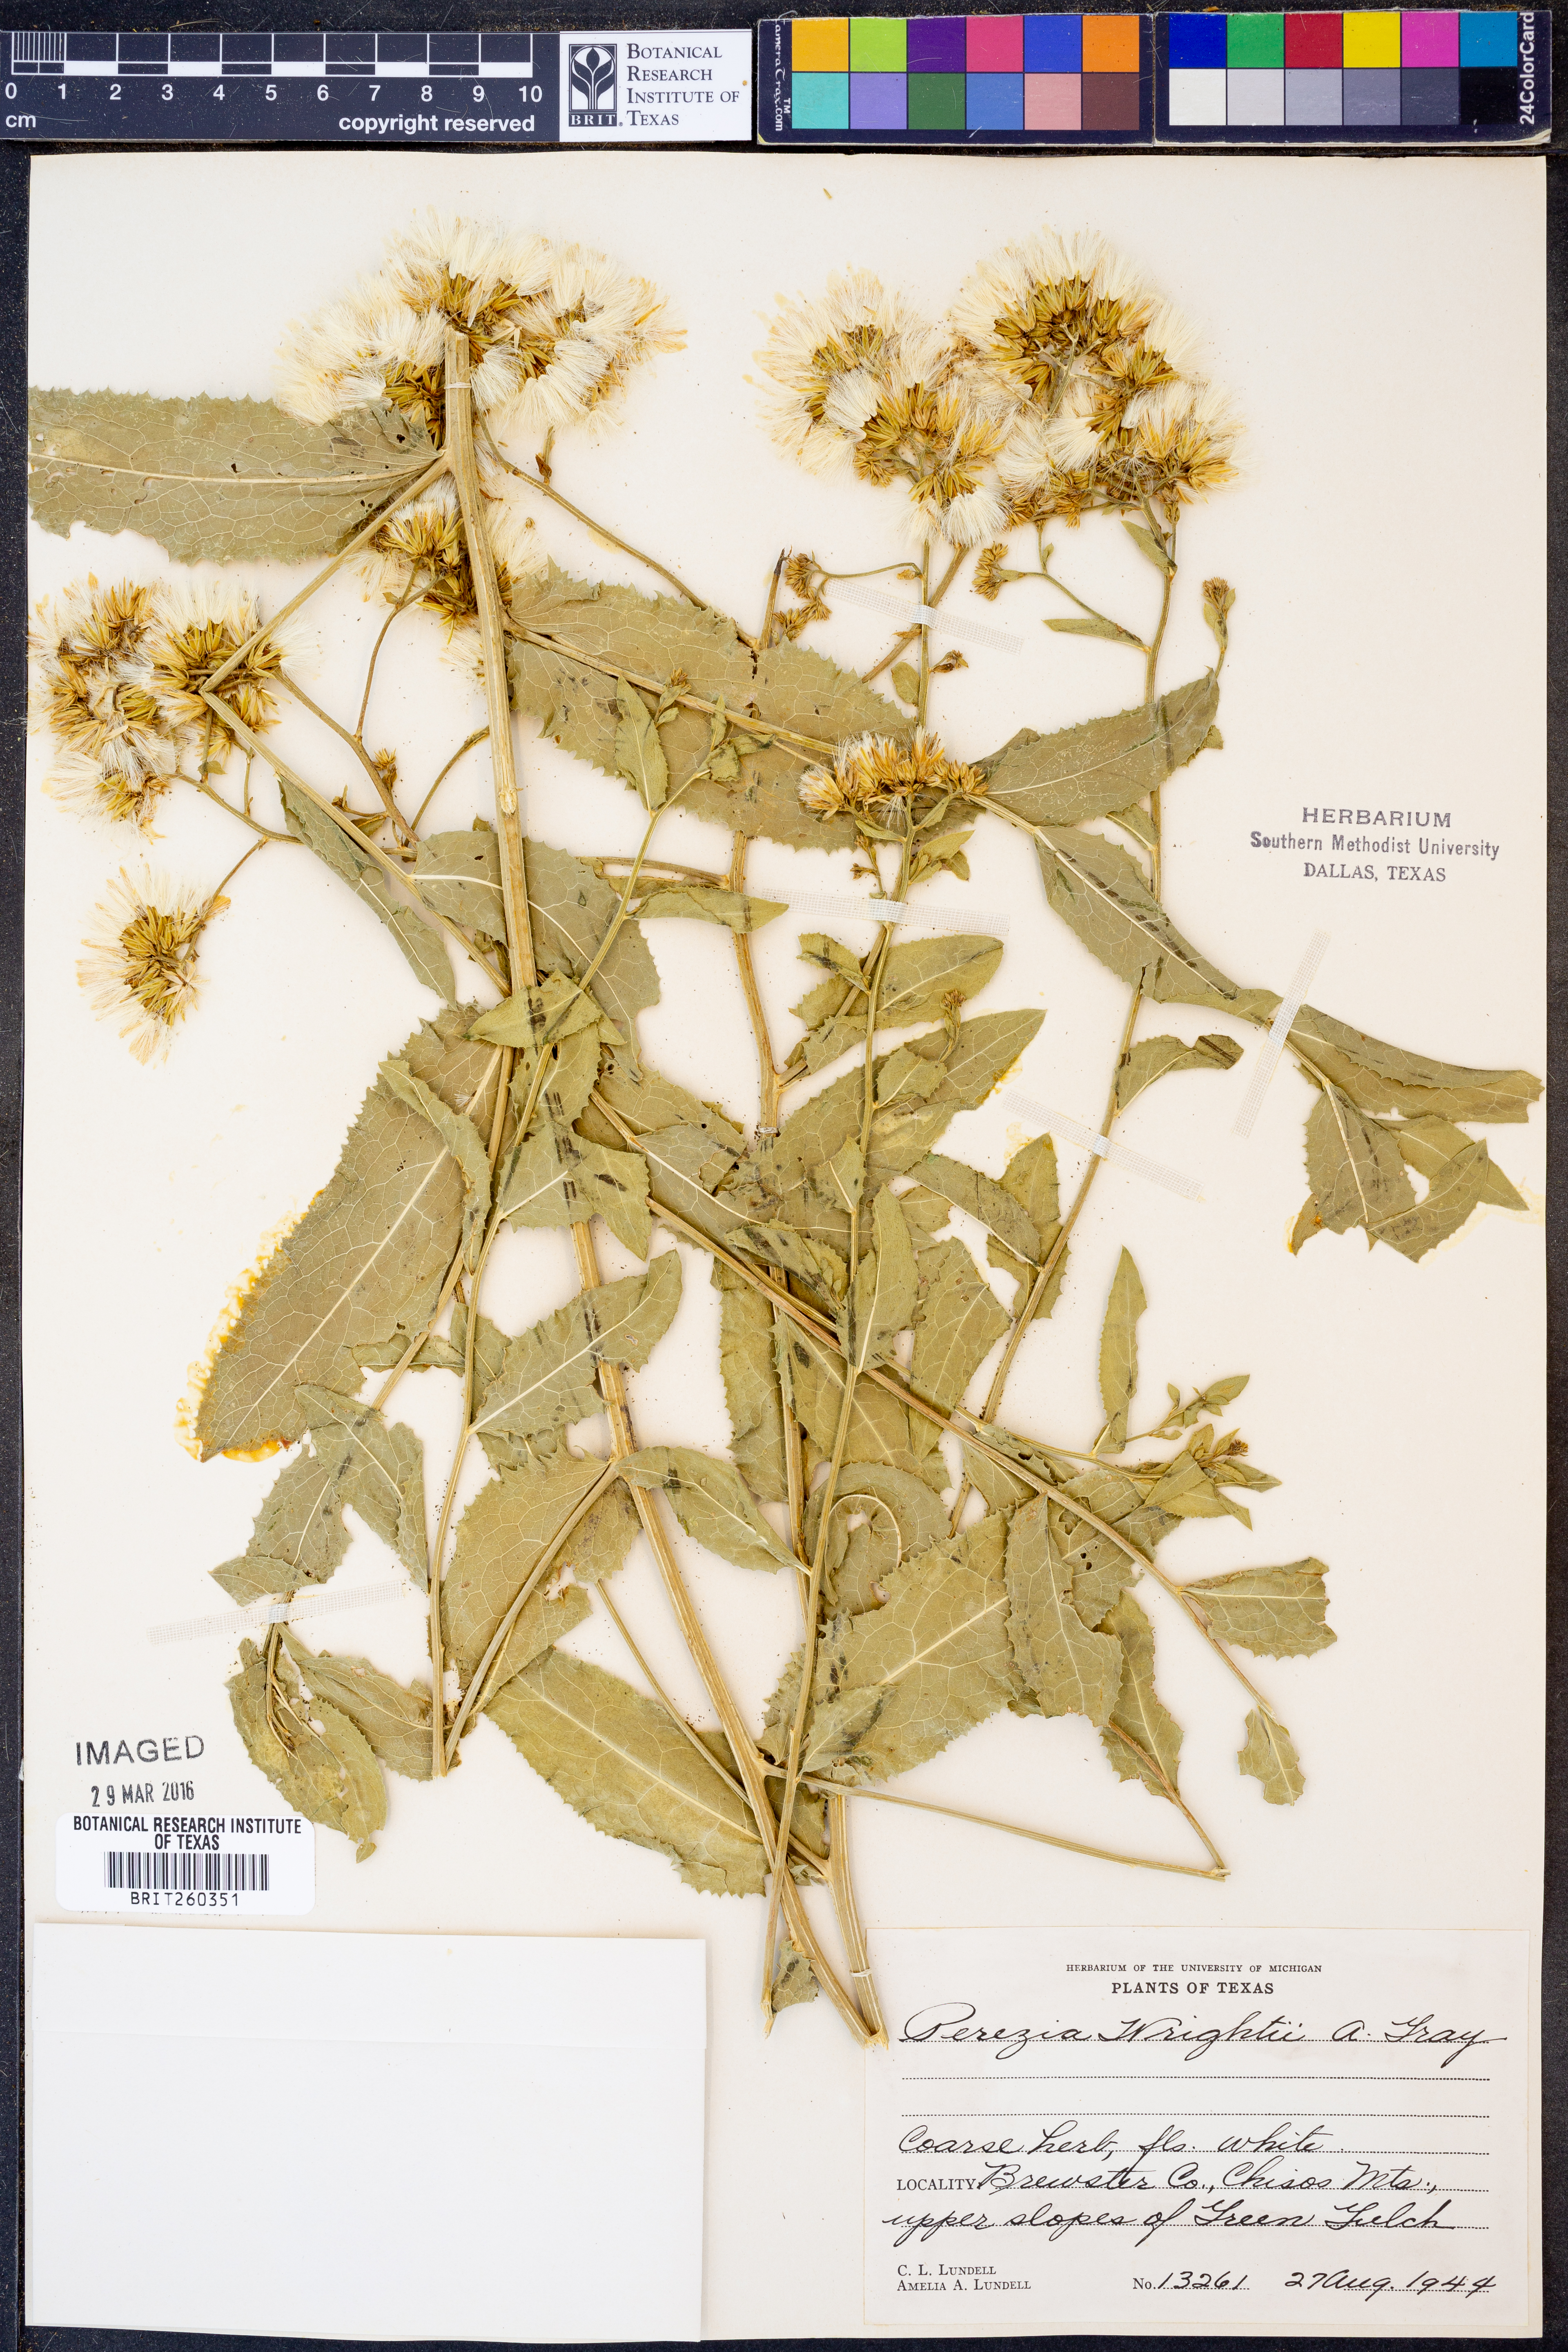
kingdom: Plantae
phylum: Tracheophyta
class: Magnoliopsida
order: Asterales
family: Asteraceae
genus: Acourtia
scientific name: Acourtia wrightii
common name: Brownfoot
